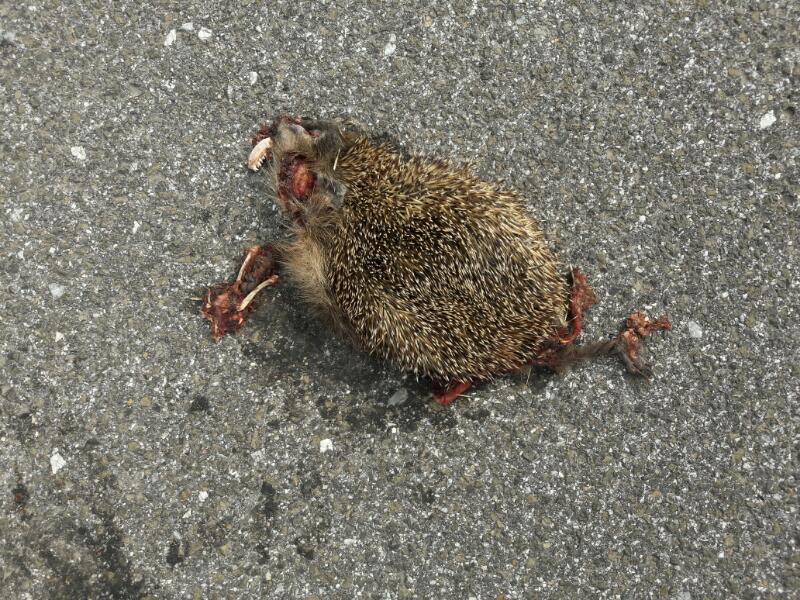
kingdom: Animalia
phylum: Chordata
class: Mammalia
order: Erinaceomorpha
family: Erinaceidae
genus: Erinaceus
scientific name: Erinaceus
